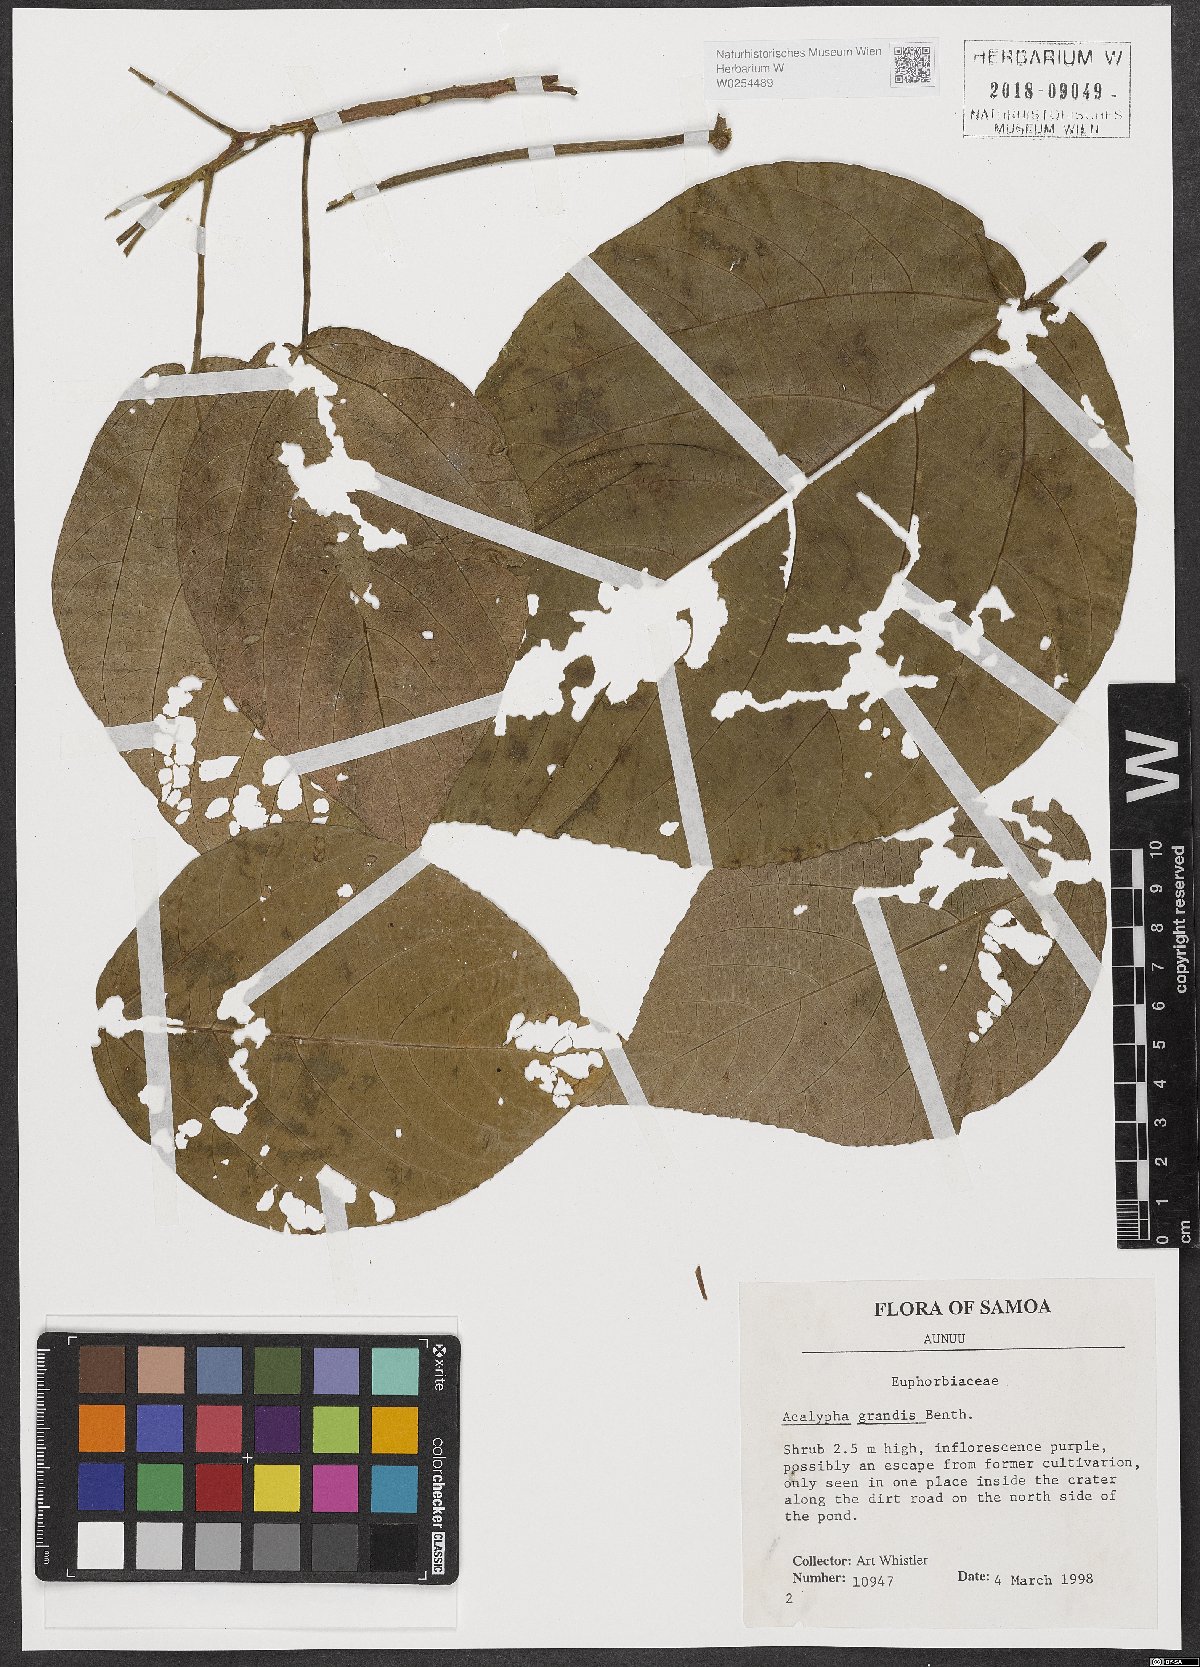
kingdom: Plantae
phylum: Tracheophyta
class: Magnoliopsida
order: Malpighiales
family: Euphorbiaceae
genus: Acalypha
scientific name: Acalypha grandis
